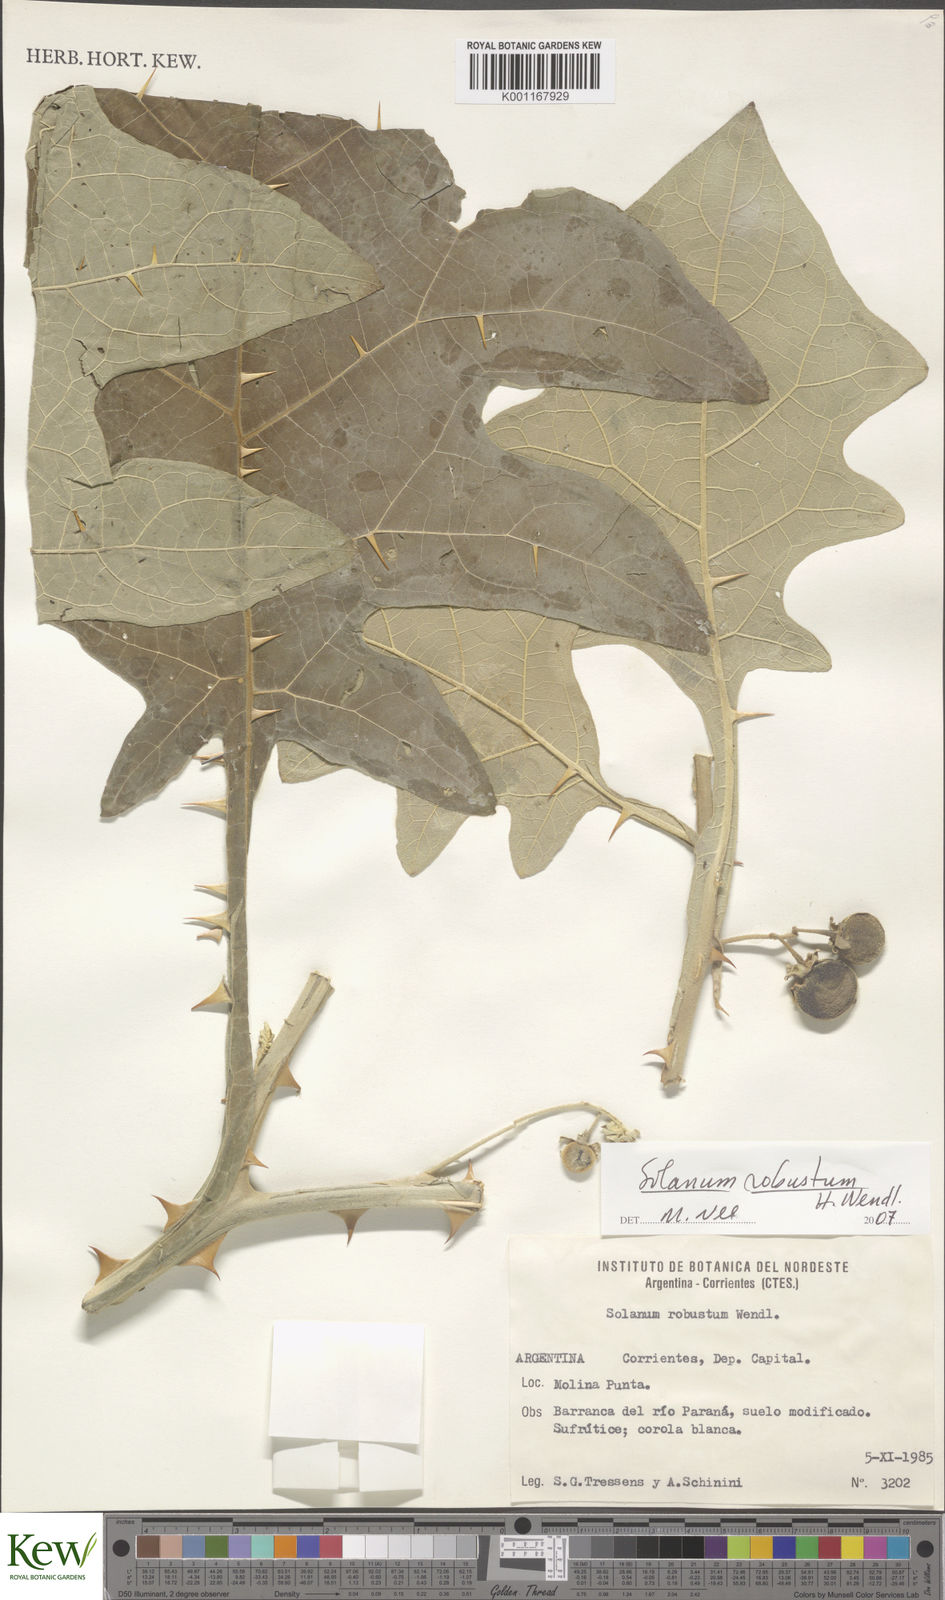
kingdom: Plantae
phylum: Tracheophyta
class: Magnoliopsida
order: Solanales
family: Solanaceae
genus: Solanum
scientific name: Solanum robustum
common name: Shrubby nightshade
